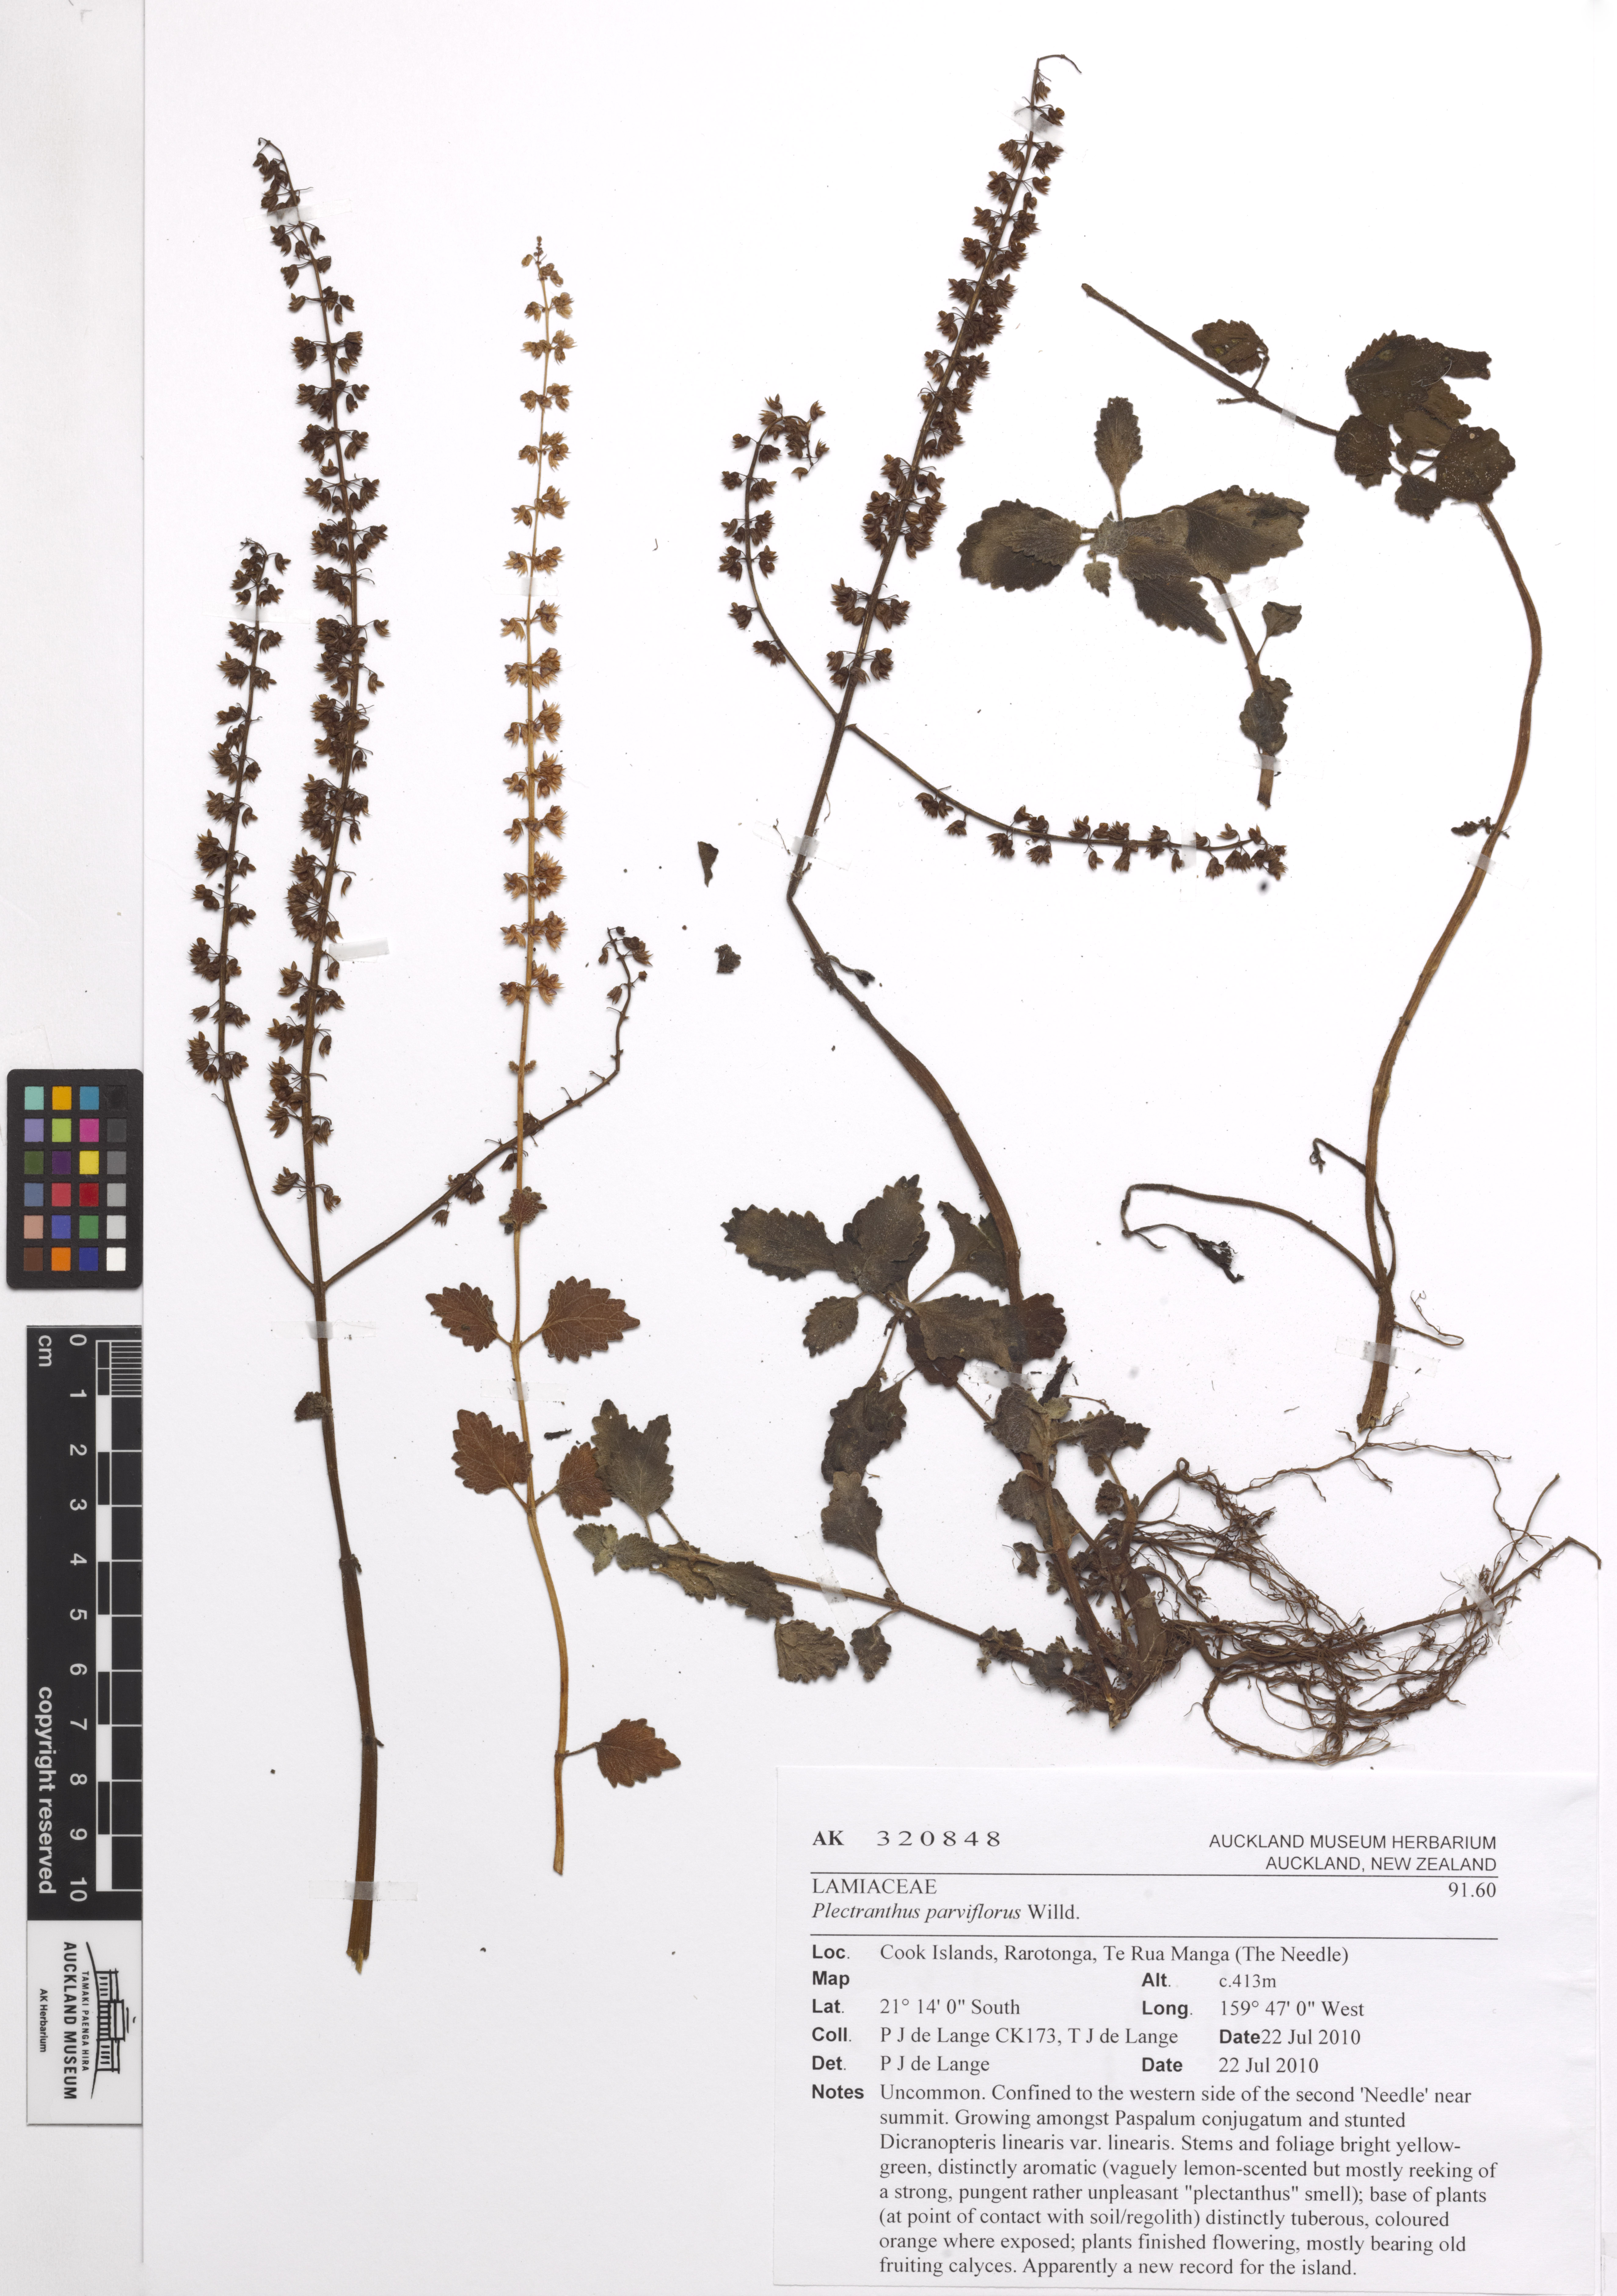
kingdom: Plantae
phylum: Tracheophyta
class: Magnoliopsida
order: Lamiales
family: Lamiaceae
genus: Coleus
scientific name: Coleus australis
